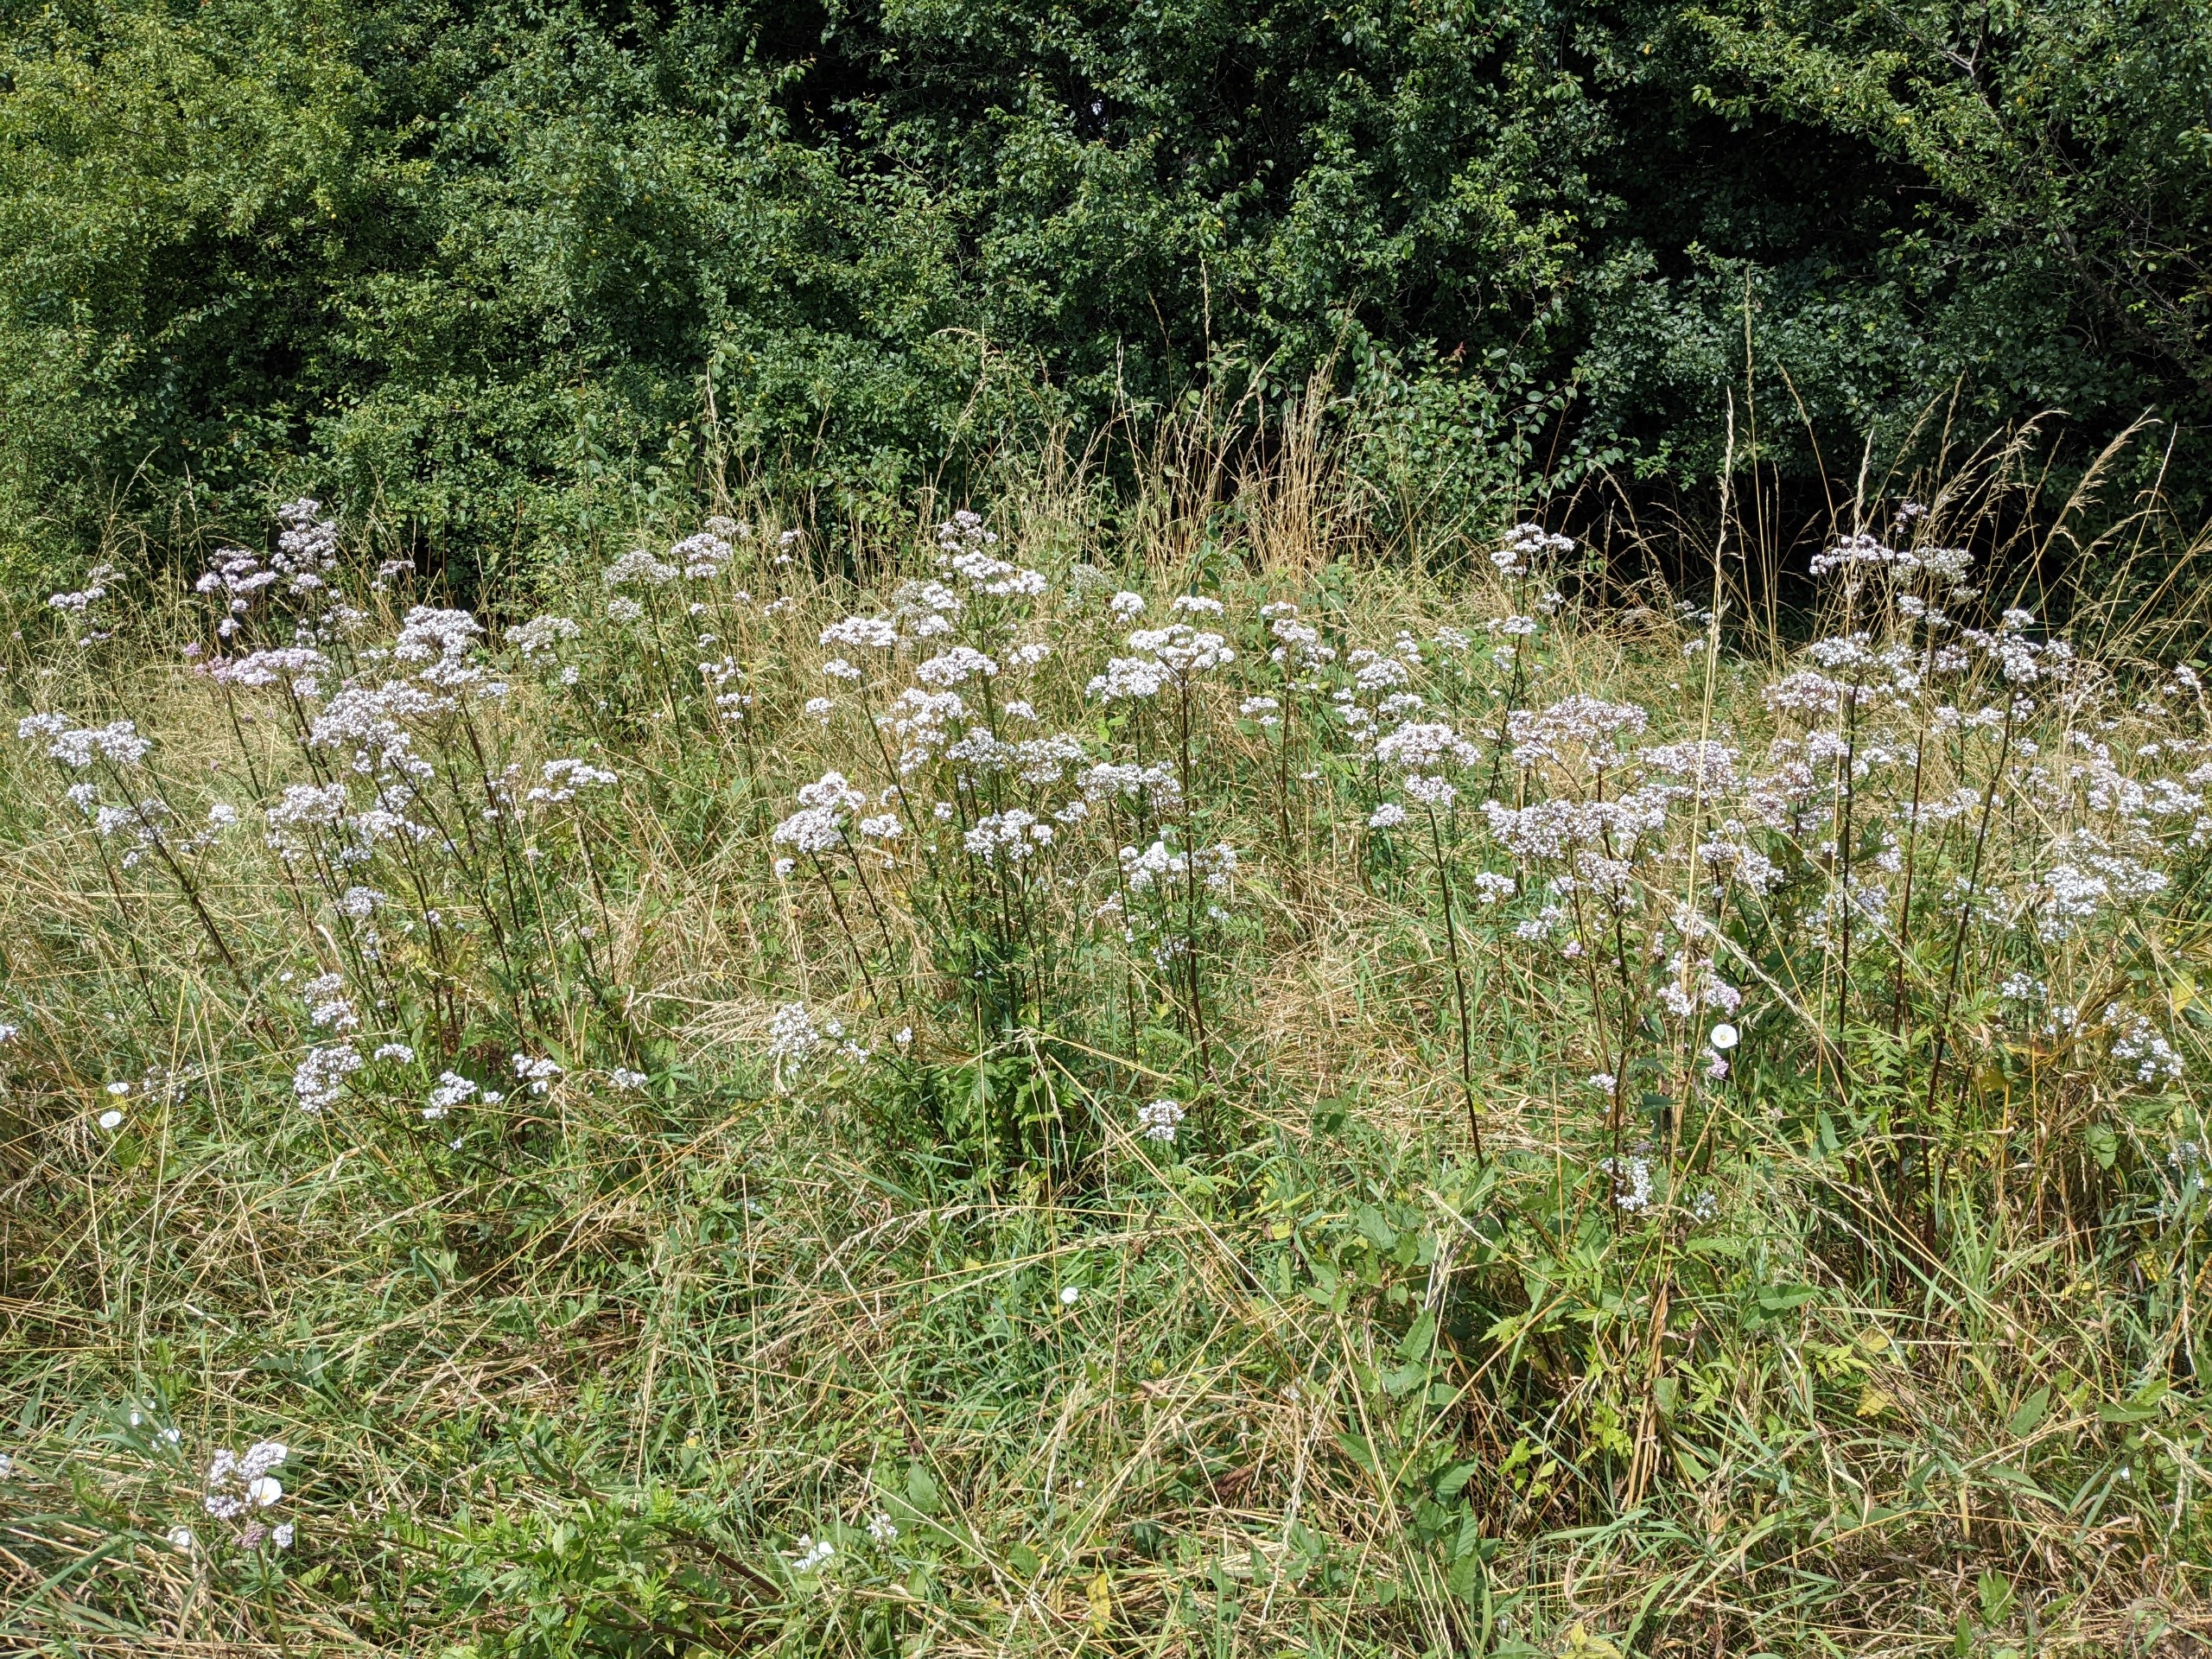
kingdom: Plantae
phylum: Tracheophyta
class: Magnoliopsida
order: Dipsacales
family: Caprifoliaceae
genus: Valeriana
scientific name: Valeriana sambucifolia
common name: Hyldebladet baldrian
